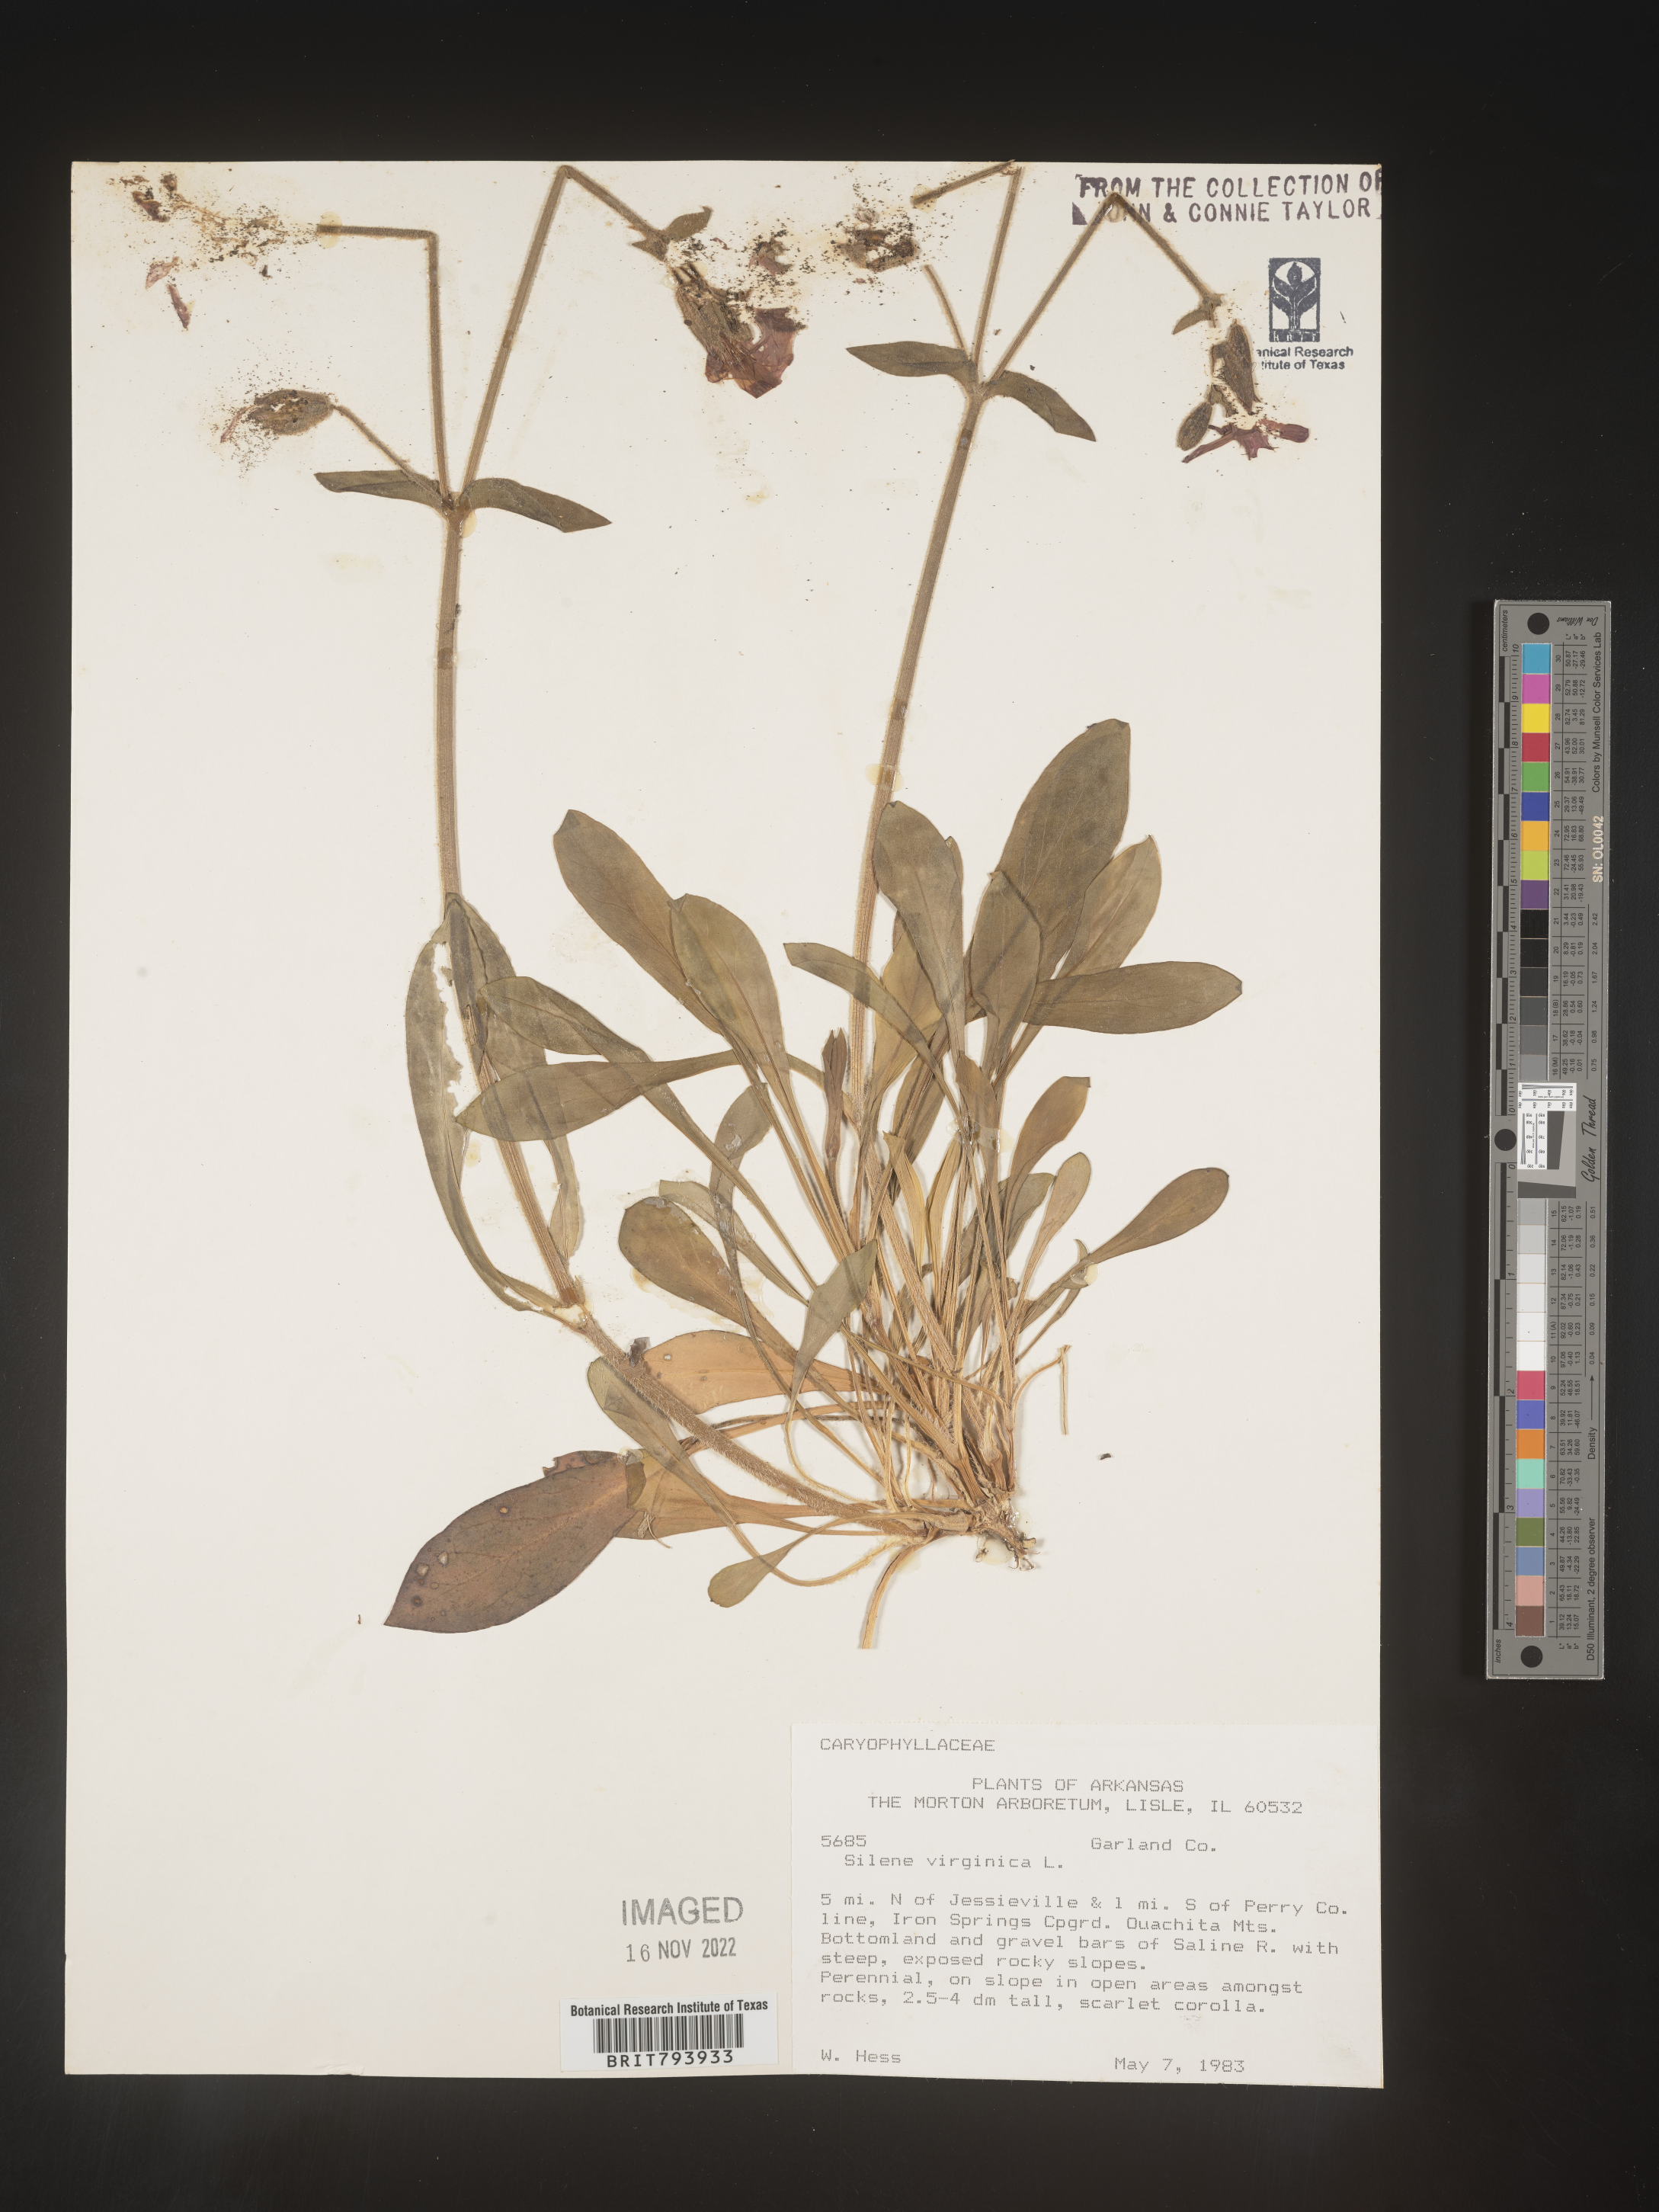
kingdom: Plantae
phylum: Tracheophyta
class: Magnoliopsida
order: Caryophyllales
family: Caryophyllaceae
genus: Silene
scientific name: Silene virginica
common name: Fire-pink
